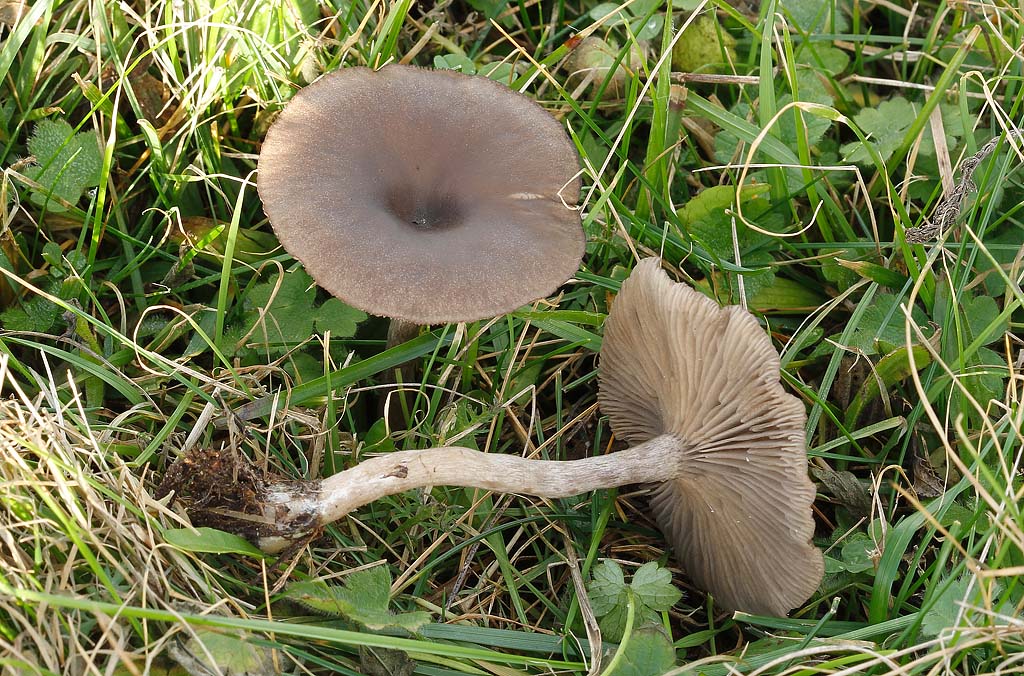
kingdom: Fungi
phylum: Basidiomycota
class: Agaricomycetes
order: Agaricales
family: Pseudoclitocybaceae
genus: Pseudoclitocybe
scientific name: Pseudoclitocybe expallens
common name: lille bægertragthat
